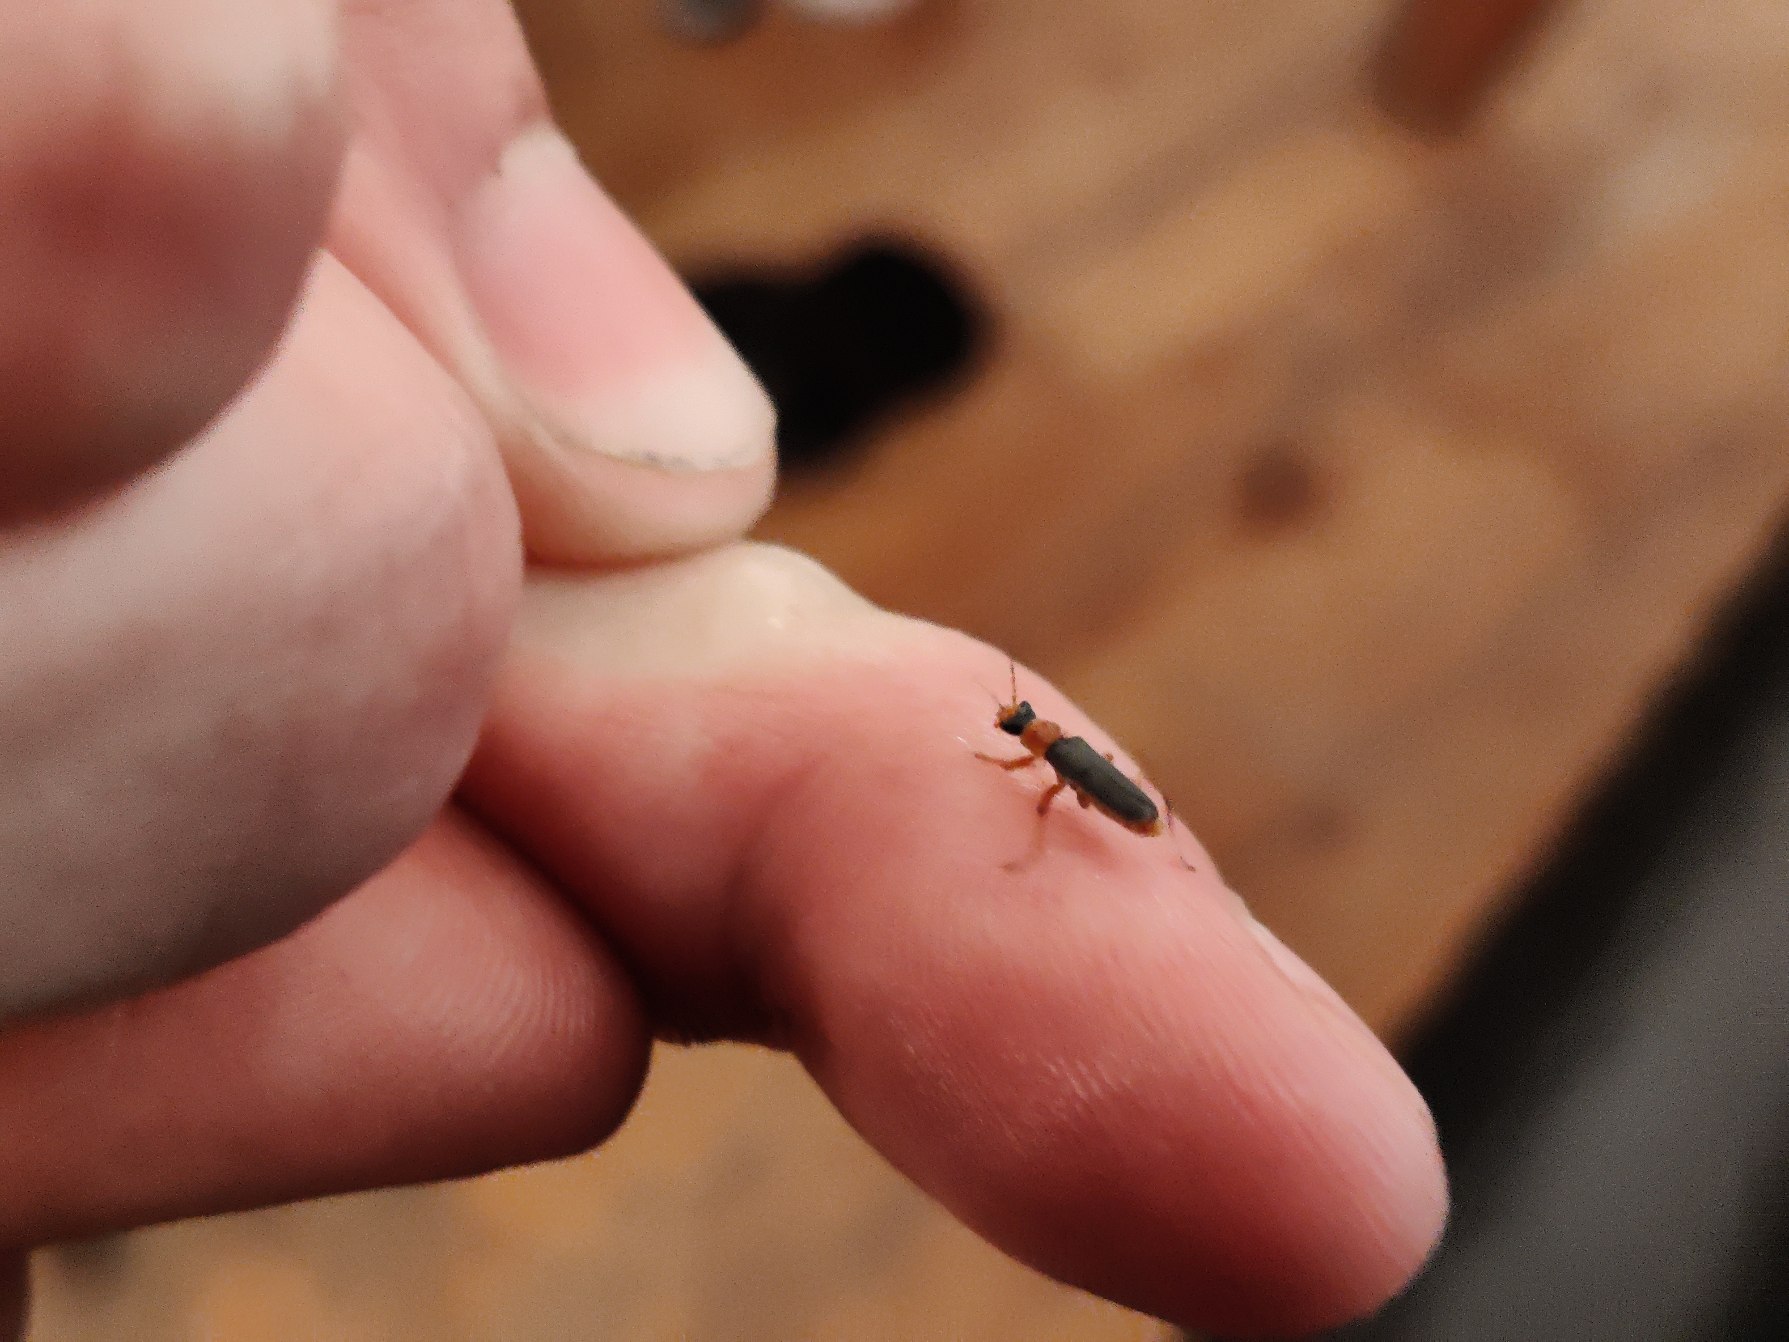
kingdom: Animalia
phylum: Arthropoda
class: Insecta
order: Coleoptera
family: Cantharidae
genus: Cantharis
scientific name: Cantharis lateralis
